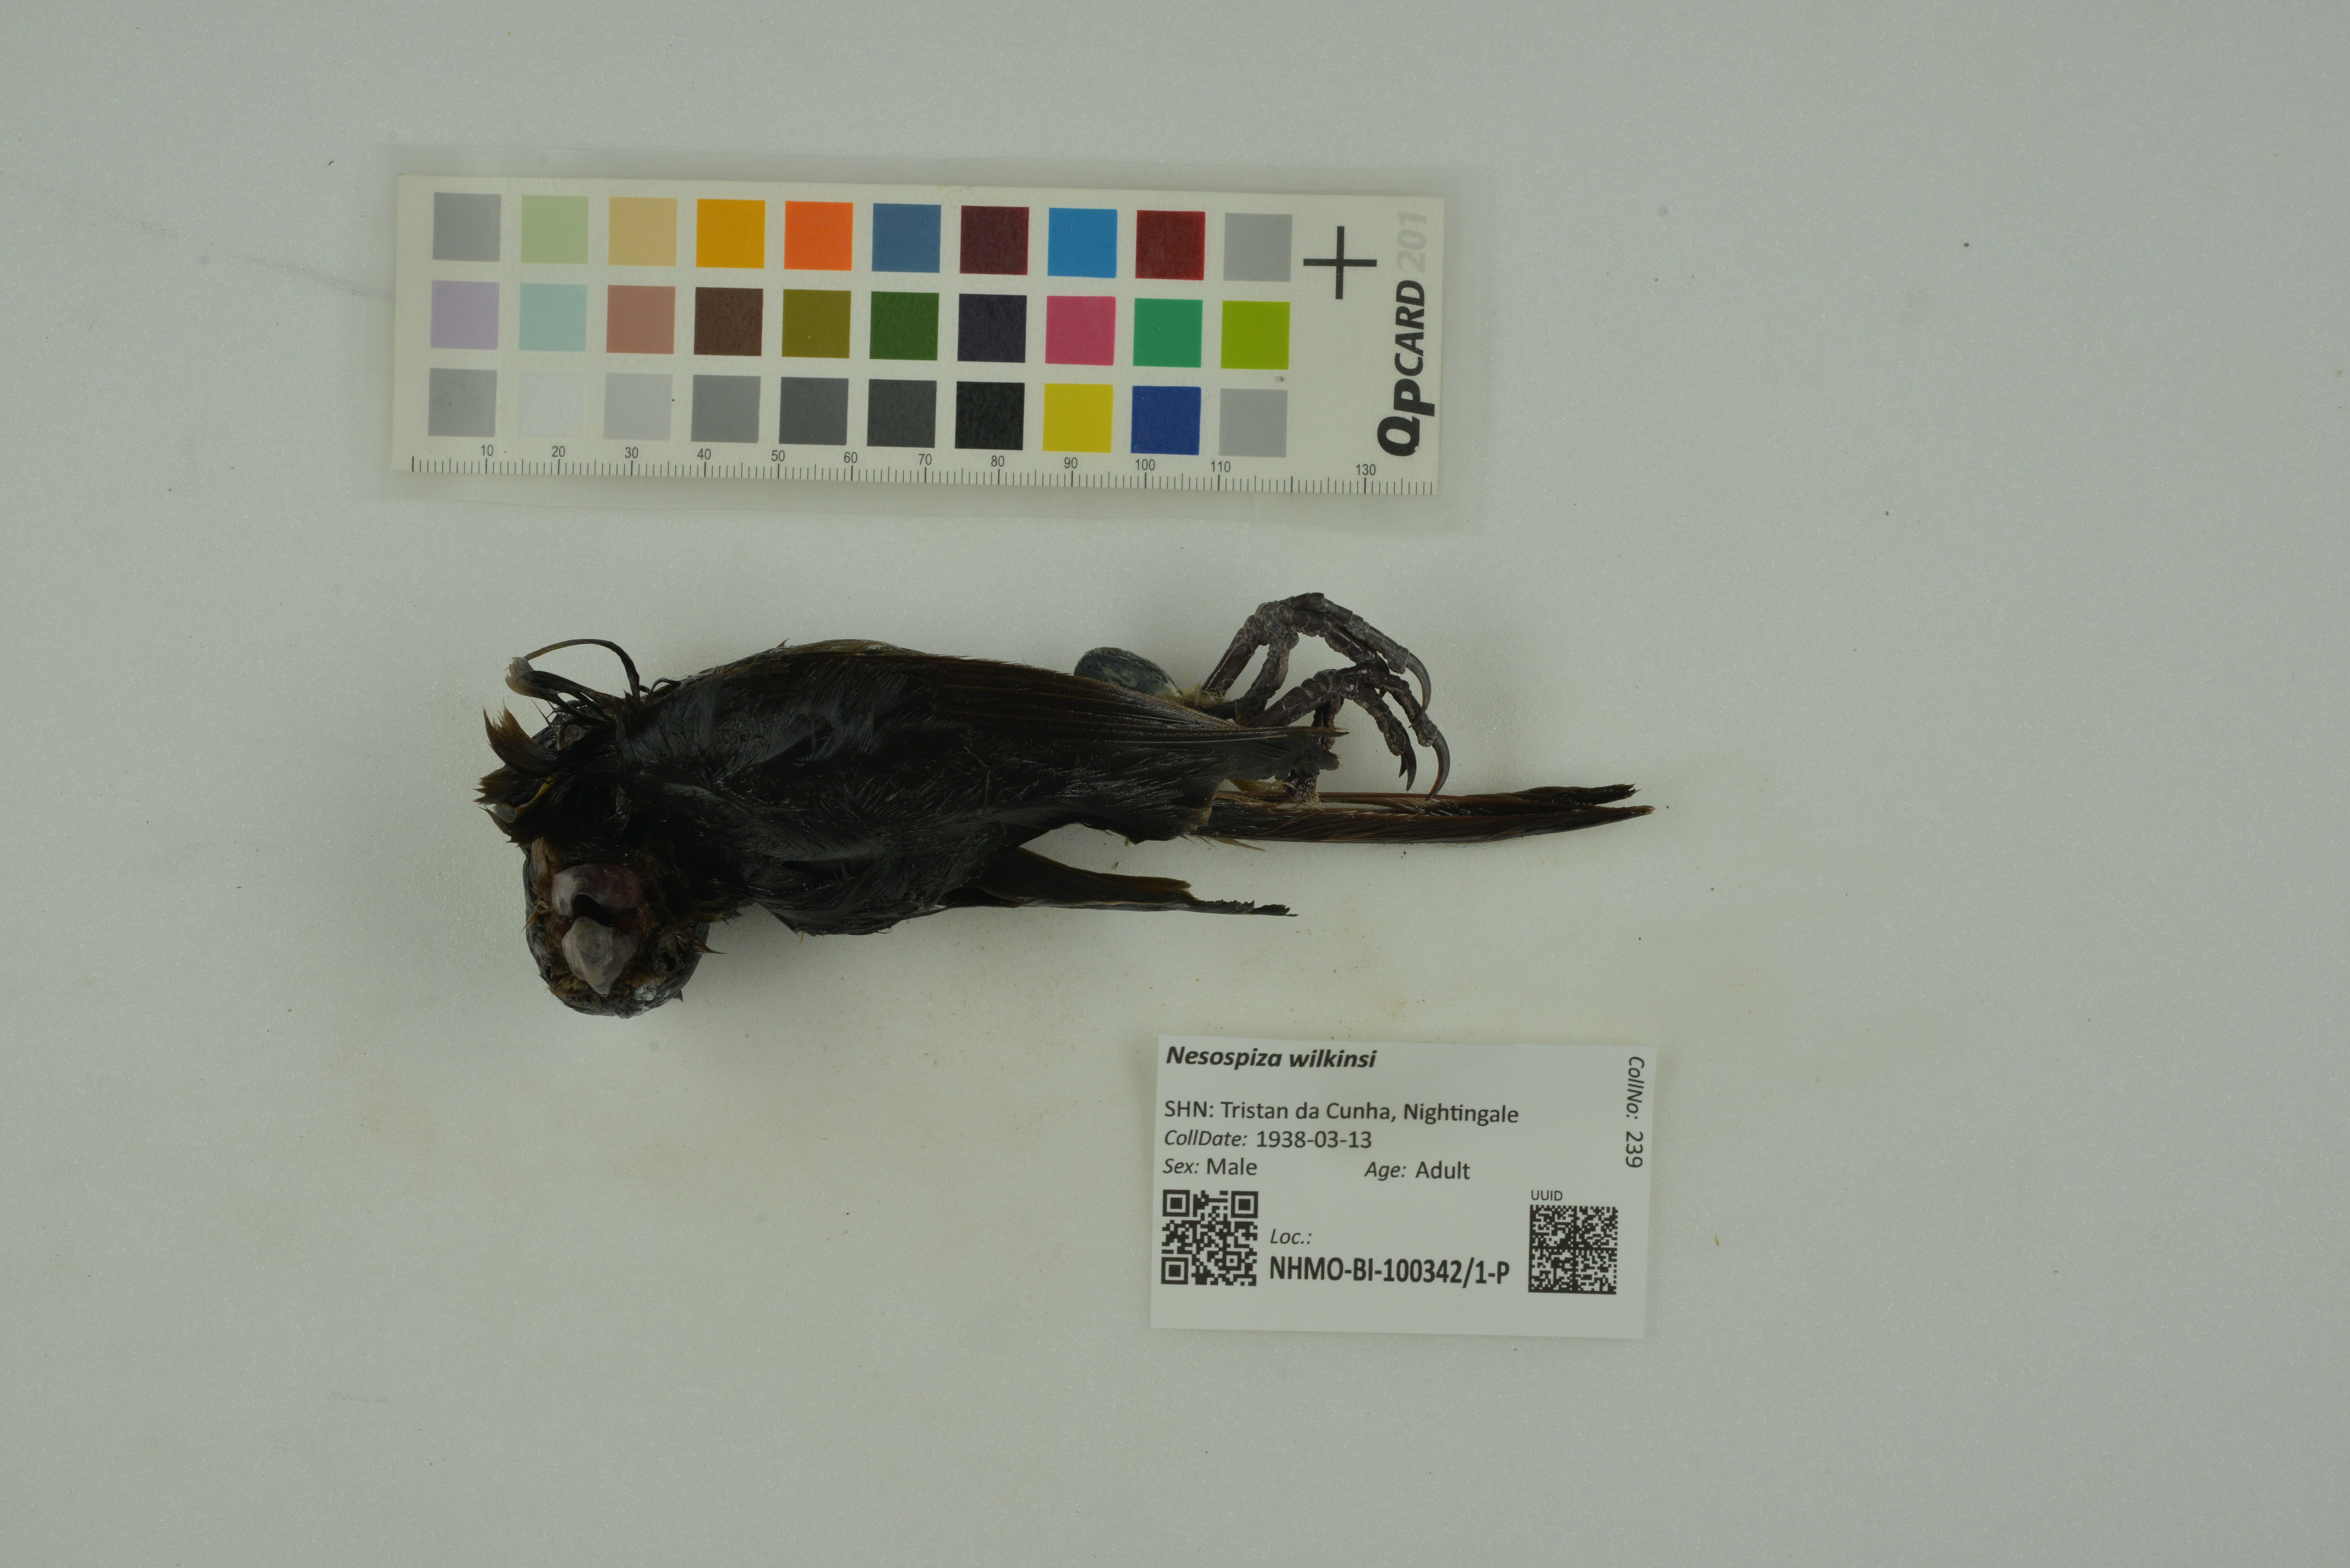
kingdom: Animalia
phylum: Chordata
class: Aves
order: Passeriformes
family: Thraupidae
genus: Nesospiza
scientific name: Nesospiza wilkinsi
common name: Wilkins's finch
